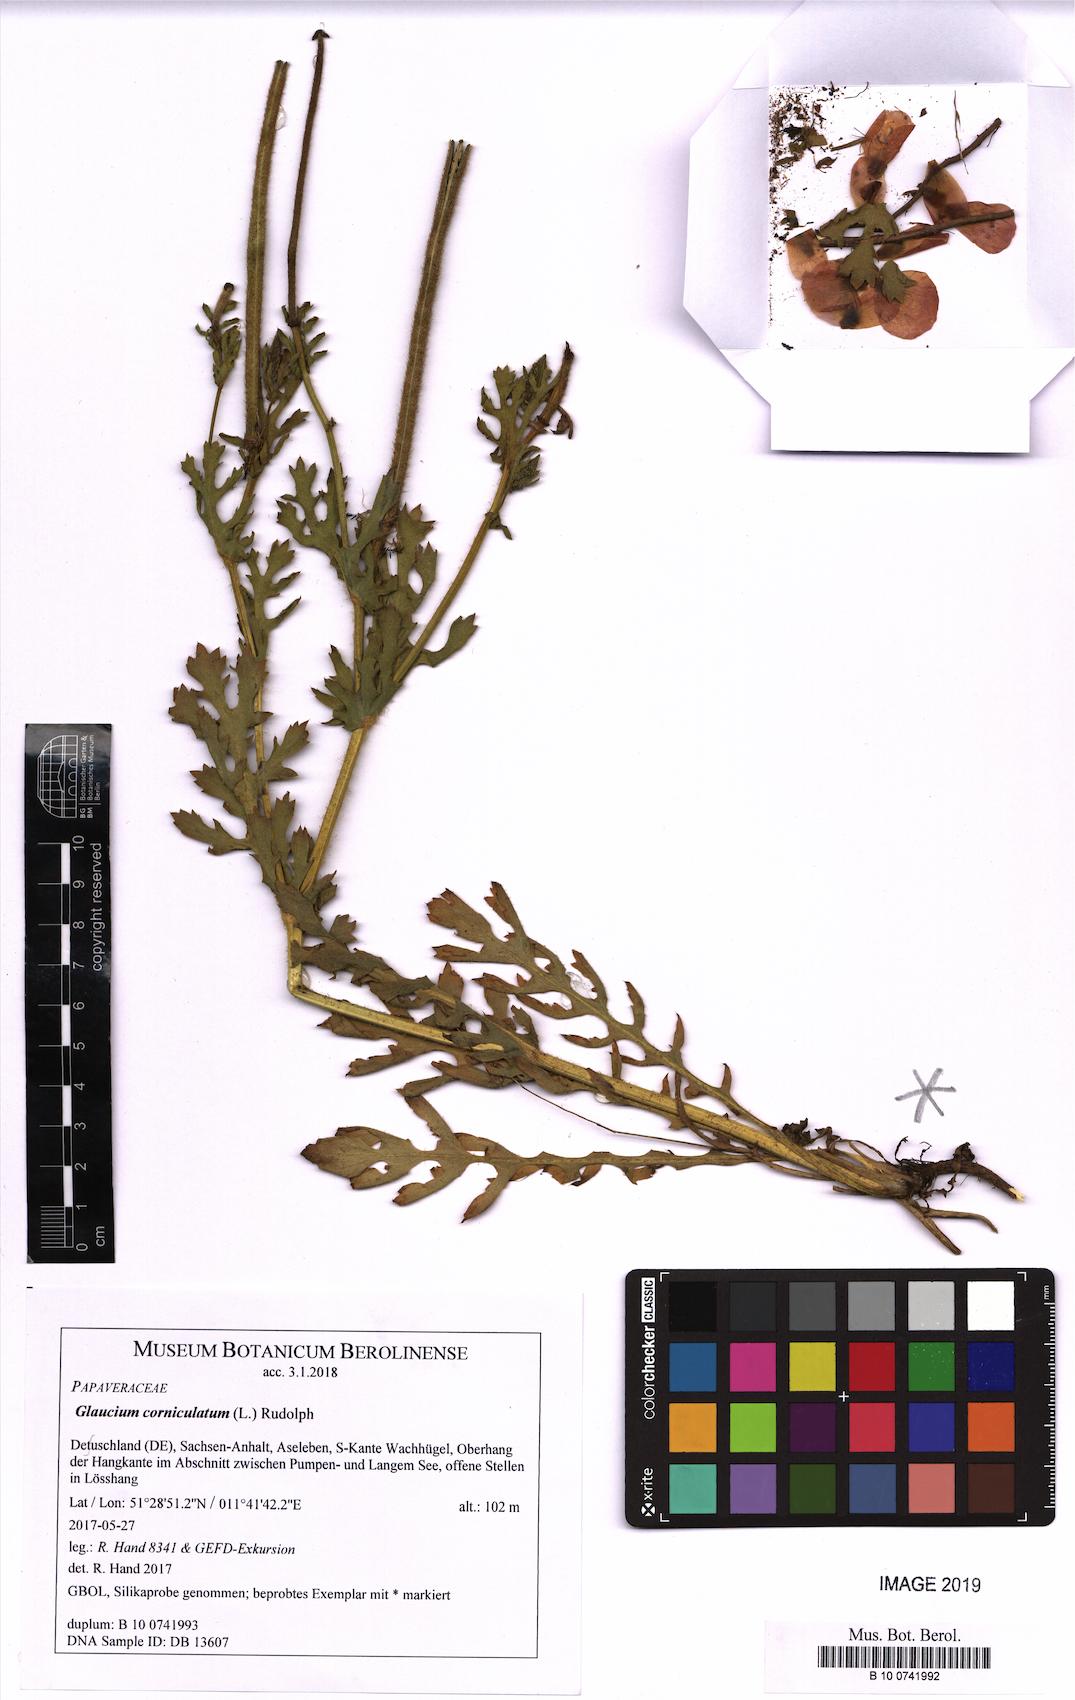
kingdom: Plantae
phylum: Tracheophyta
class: Magnoliopsida
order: Ranunculales
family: Papaveraceae
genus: Glaucium
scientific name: Glaucium corniculatum
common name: Red horned-poppy
